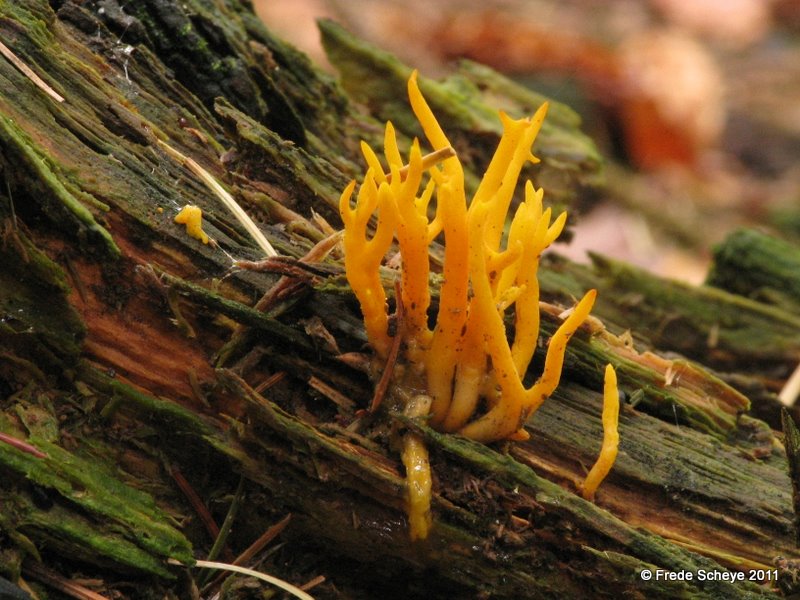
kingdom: Fungi
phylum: Basidiomycota
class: Dacrymycetes
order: Dacrymycetales
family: Dacrymycetaceae
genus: Calocera
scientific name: Calocera viscosa
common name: almindelig guldgaffel
